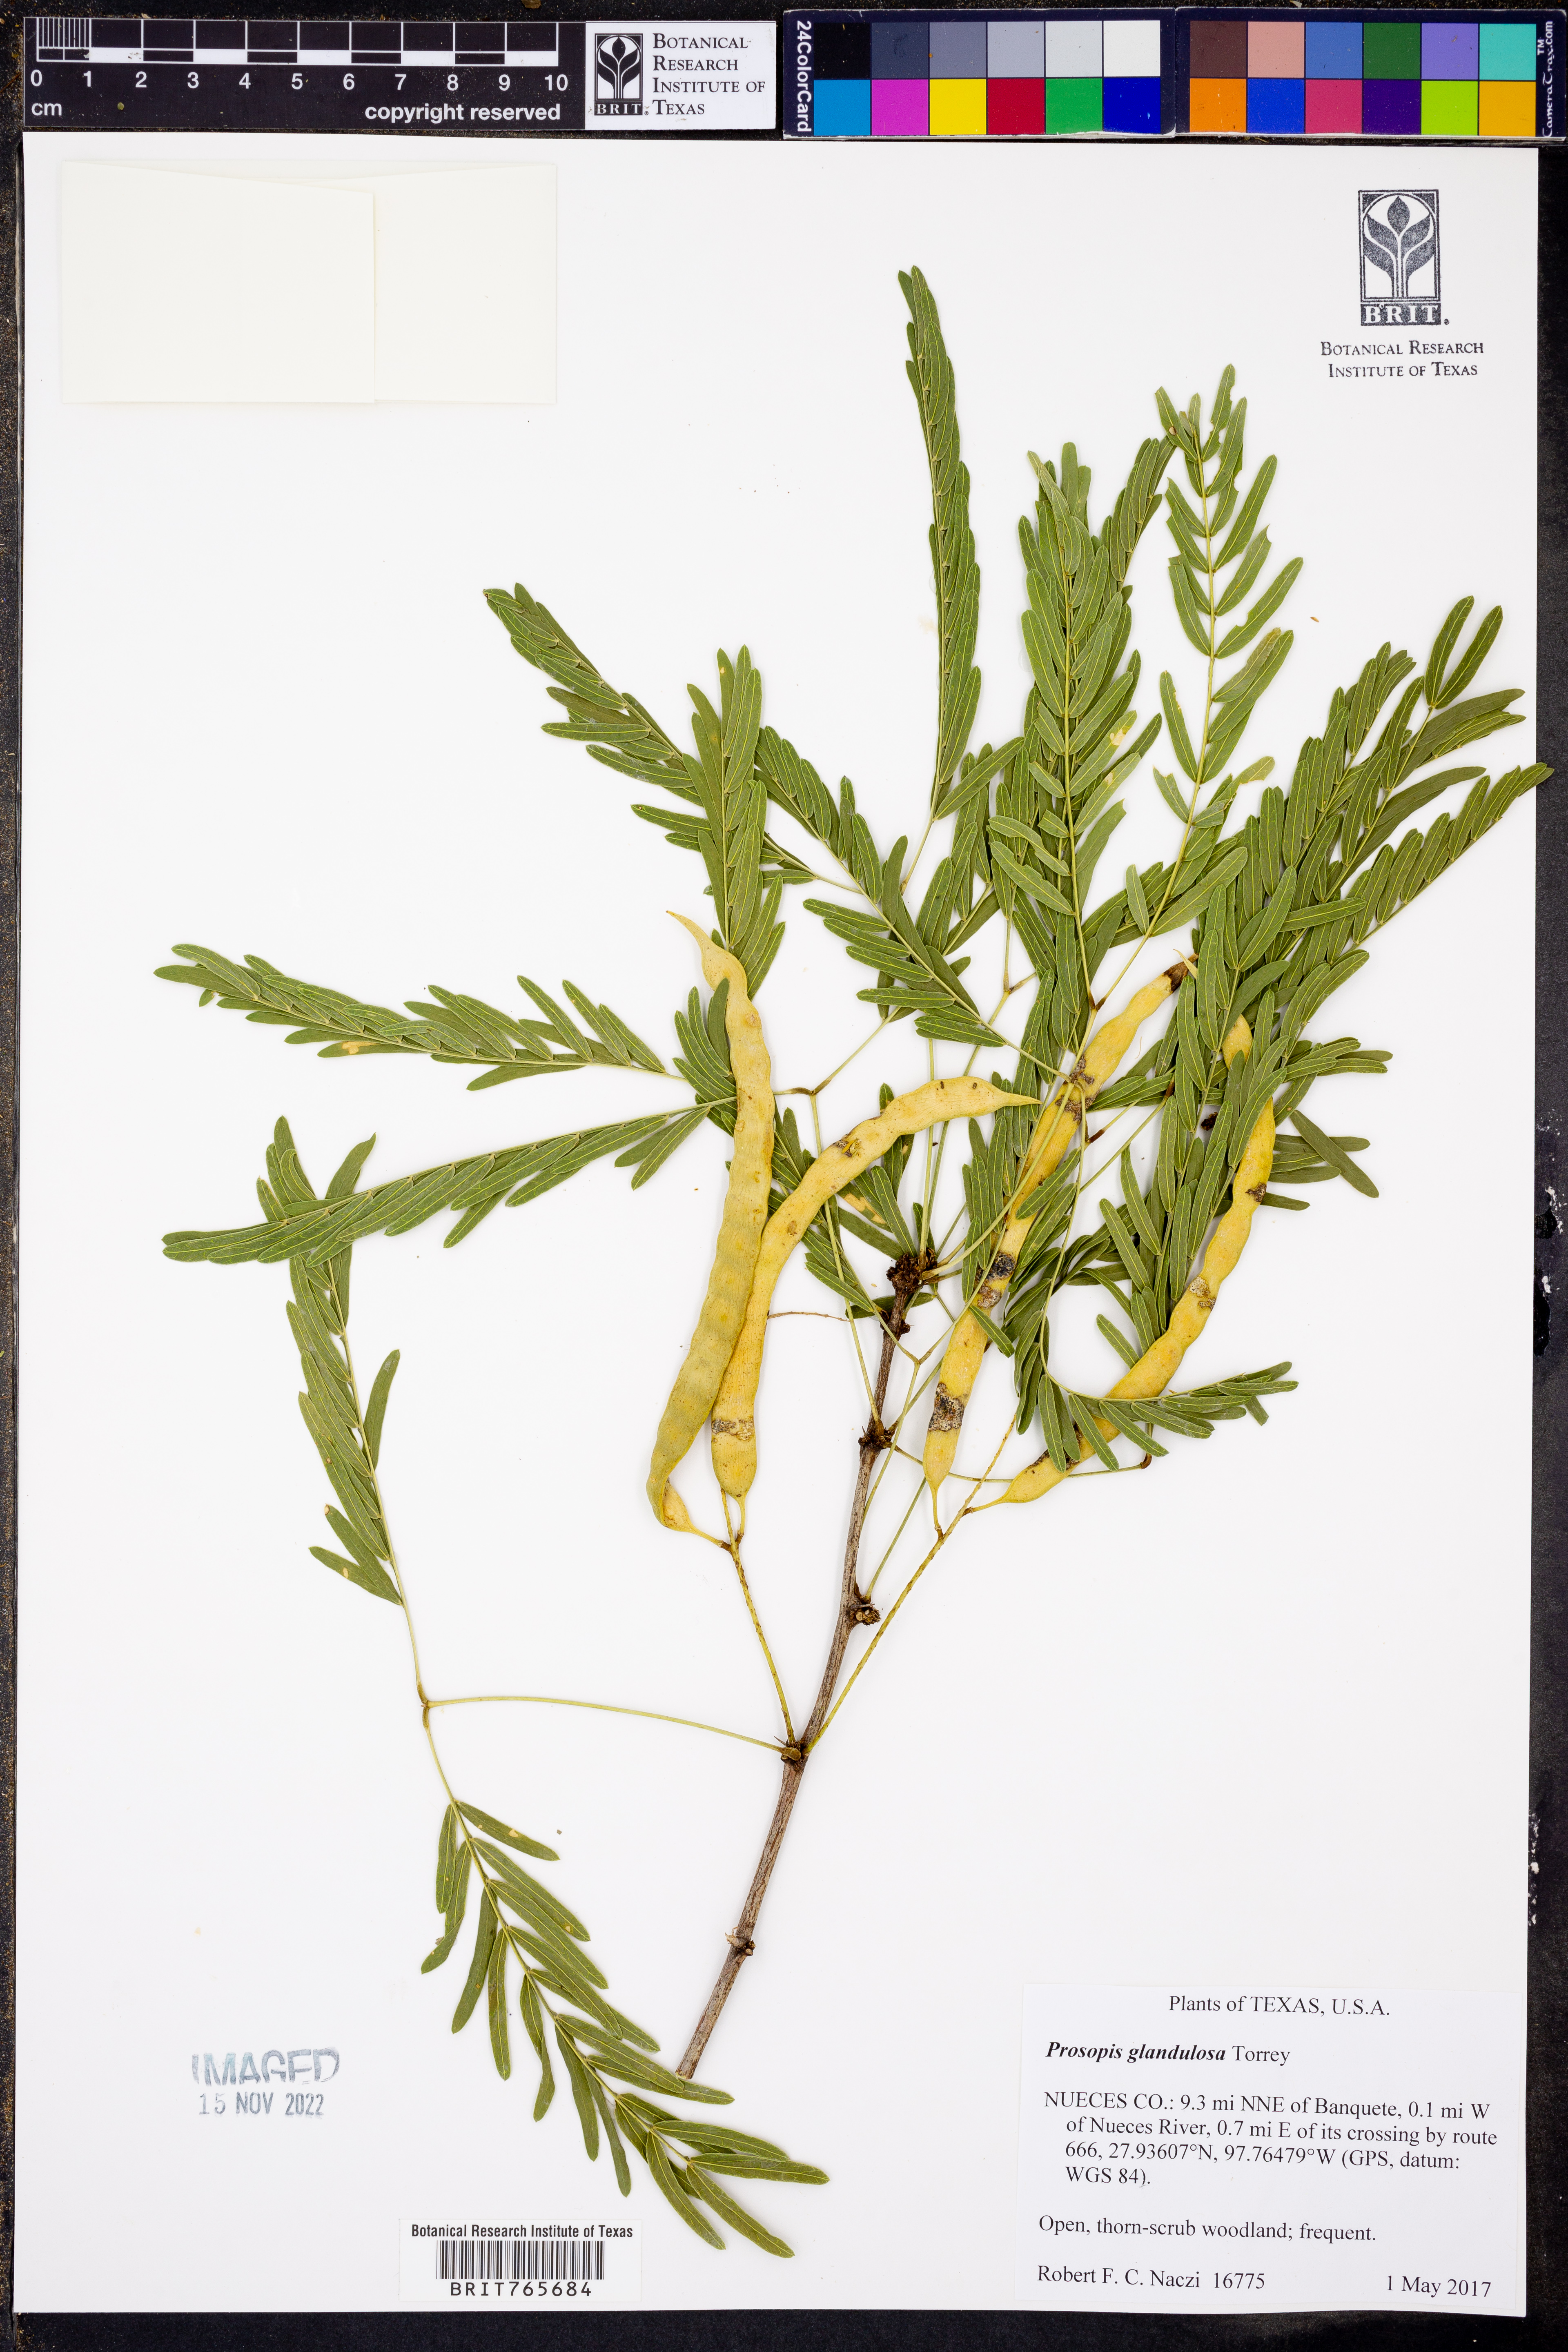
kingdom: Plantae
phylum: Tracheophyta
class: Magnoliopsida
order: Fabales
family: Fabaceae
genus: Prosopis
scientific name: Prosopis glandulosa
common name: Honey mesquite
